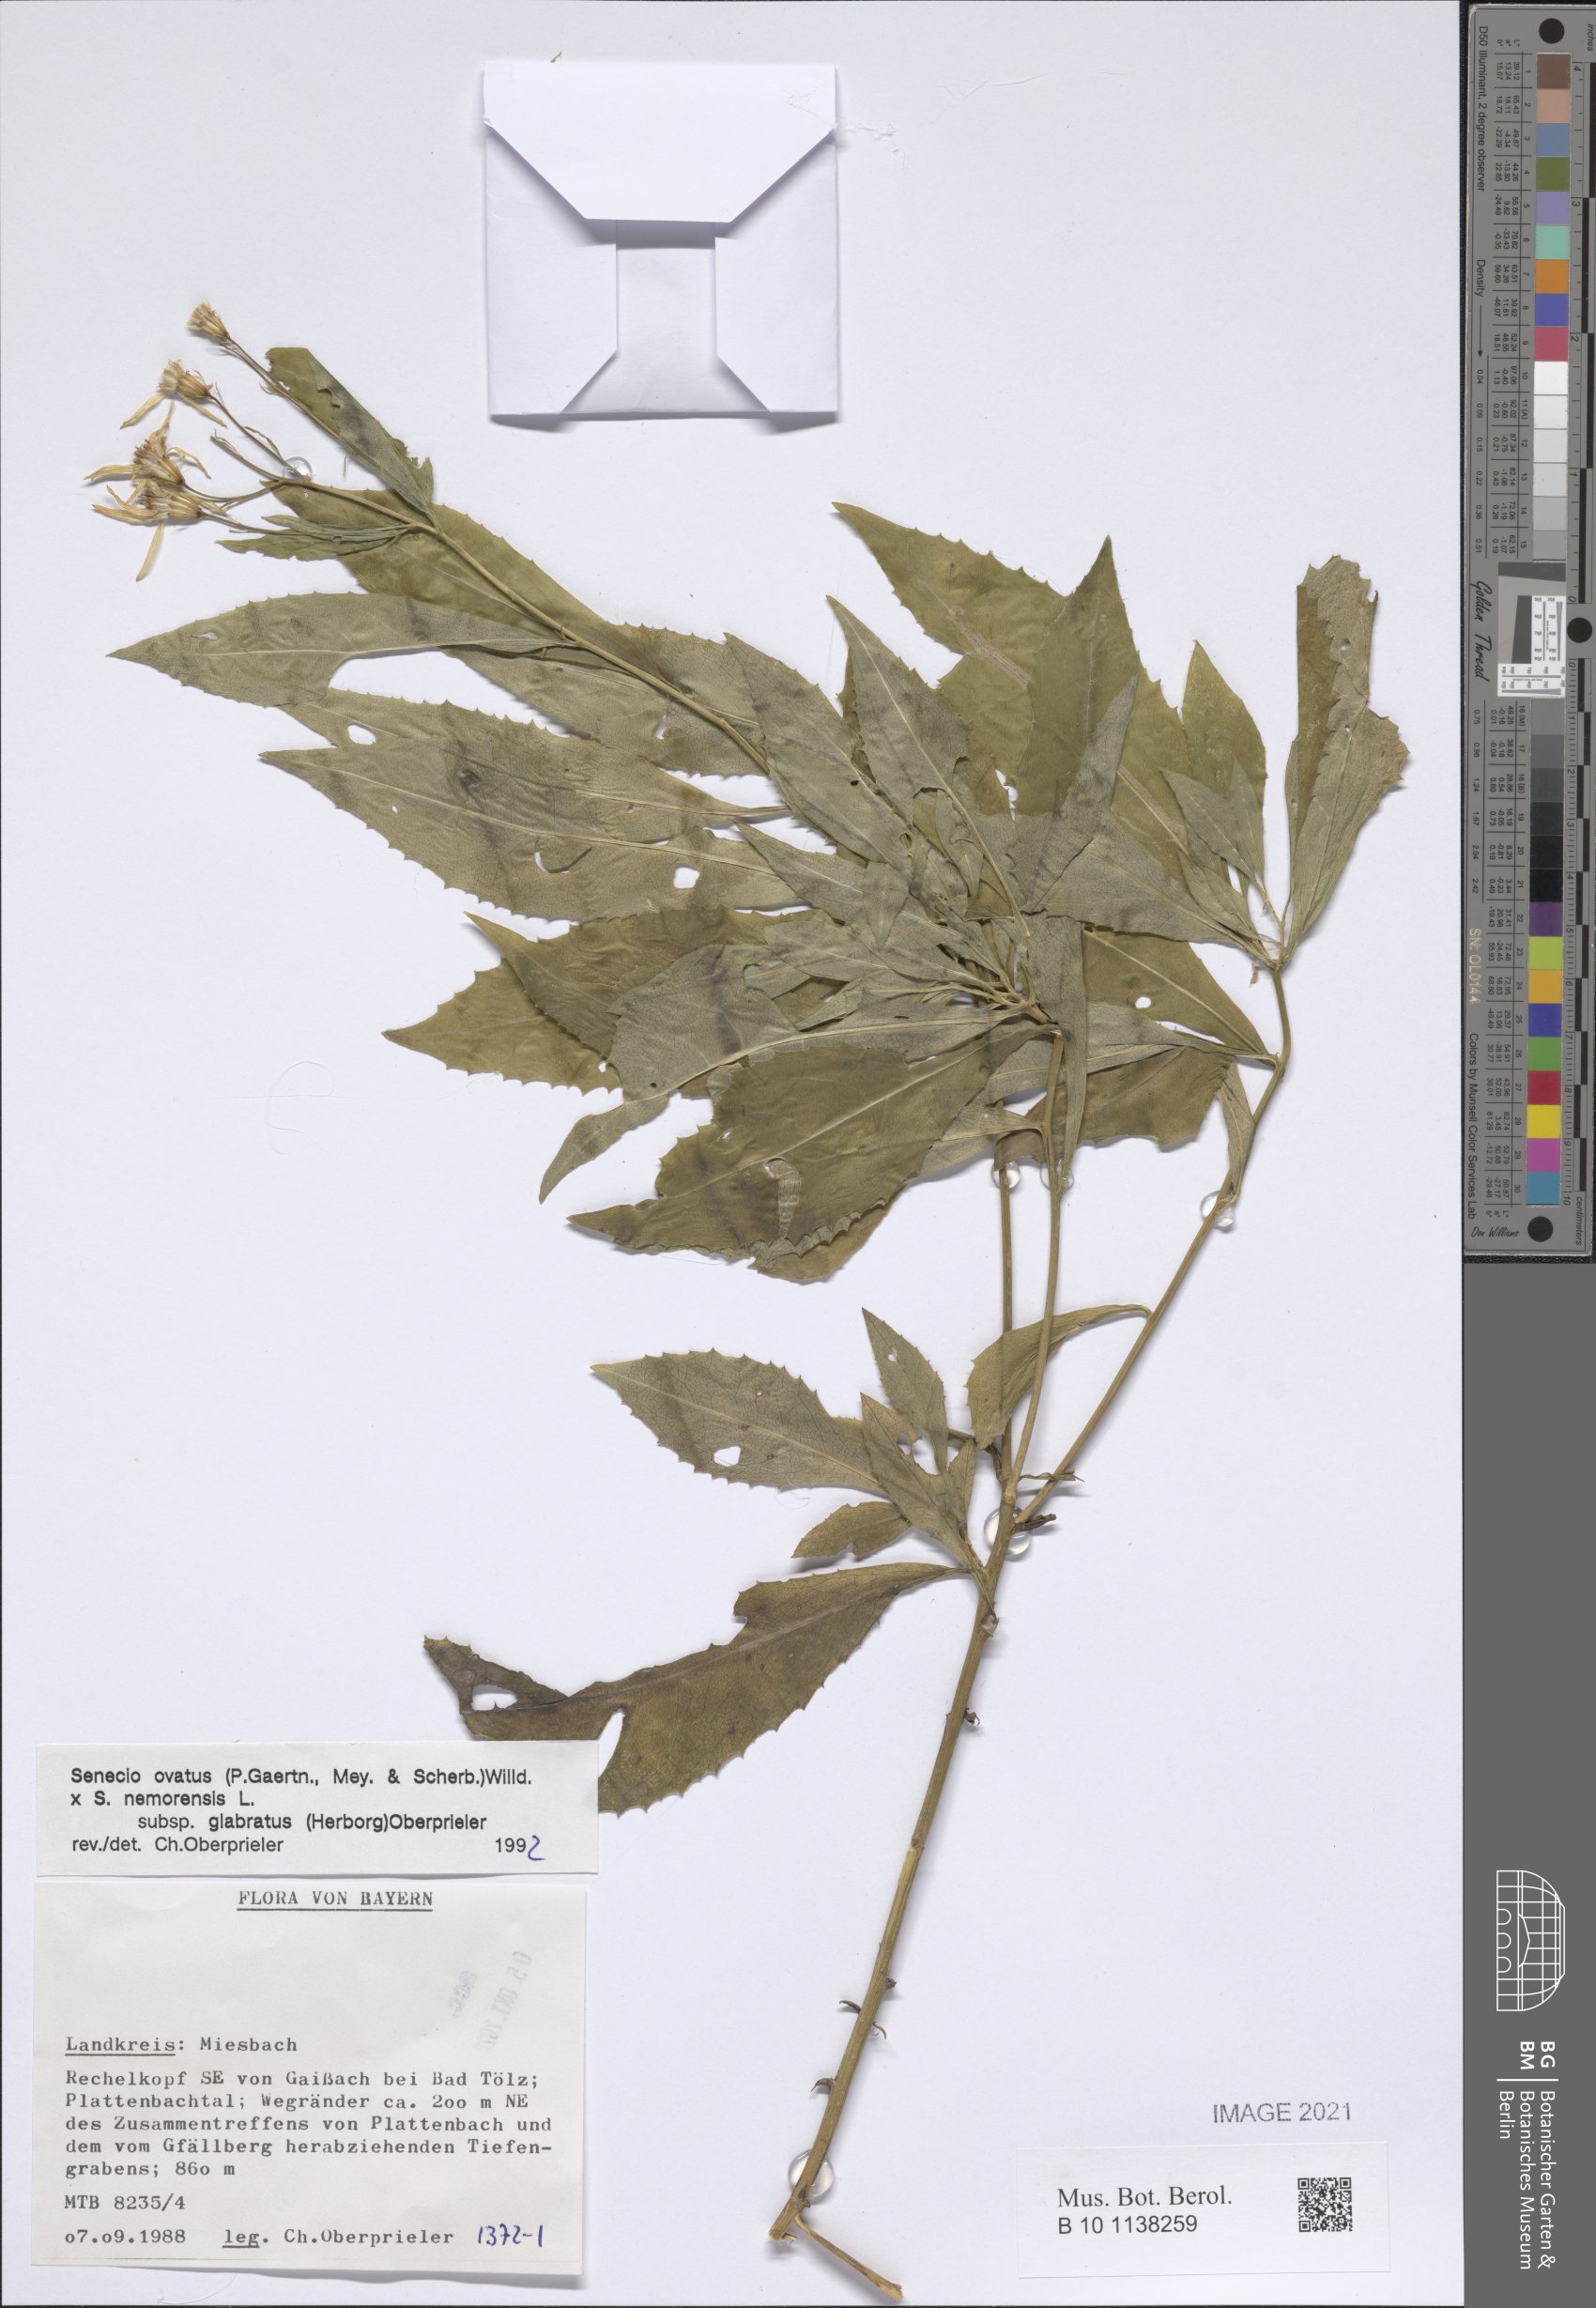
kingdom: Plantae
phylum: Tracheophyta
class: Magnoliopsida
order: Asterales
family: Asteraceae
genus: Senecio
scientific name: Senecio ovatus
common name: Wood ragwort
